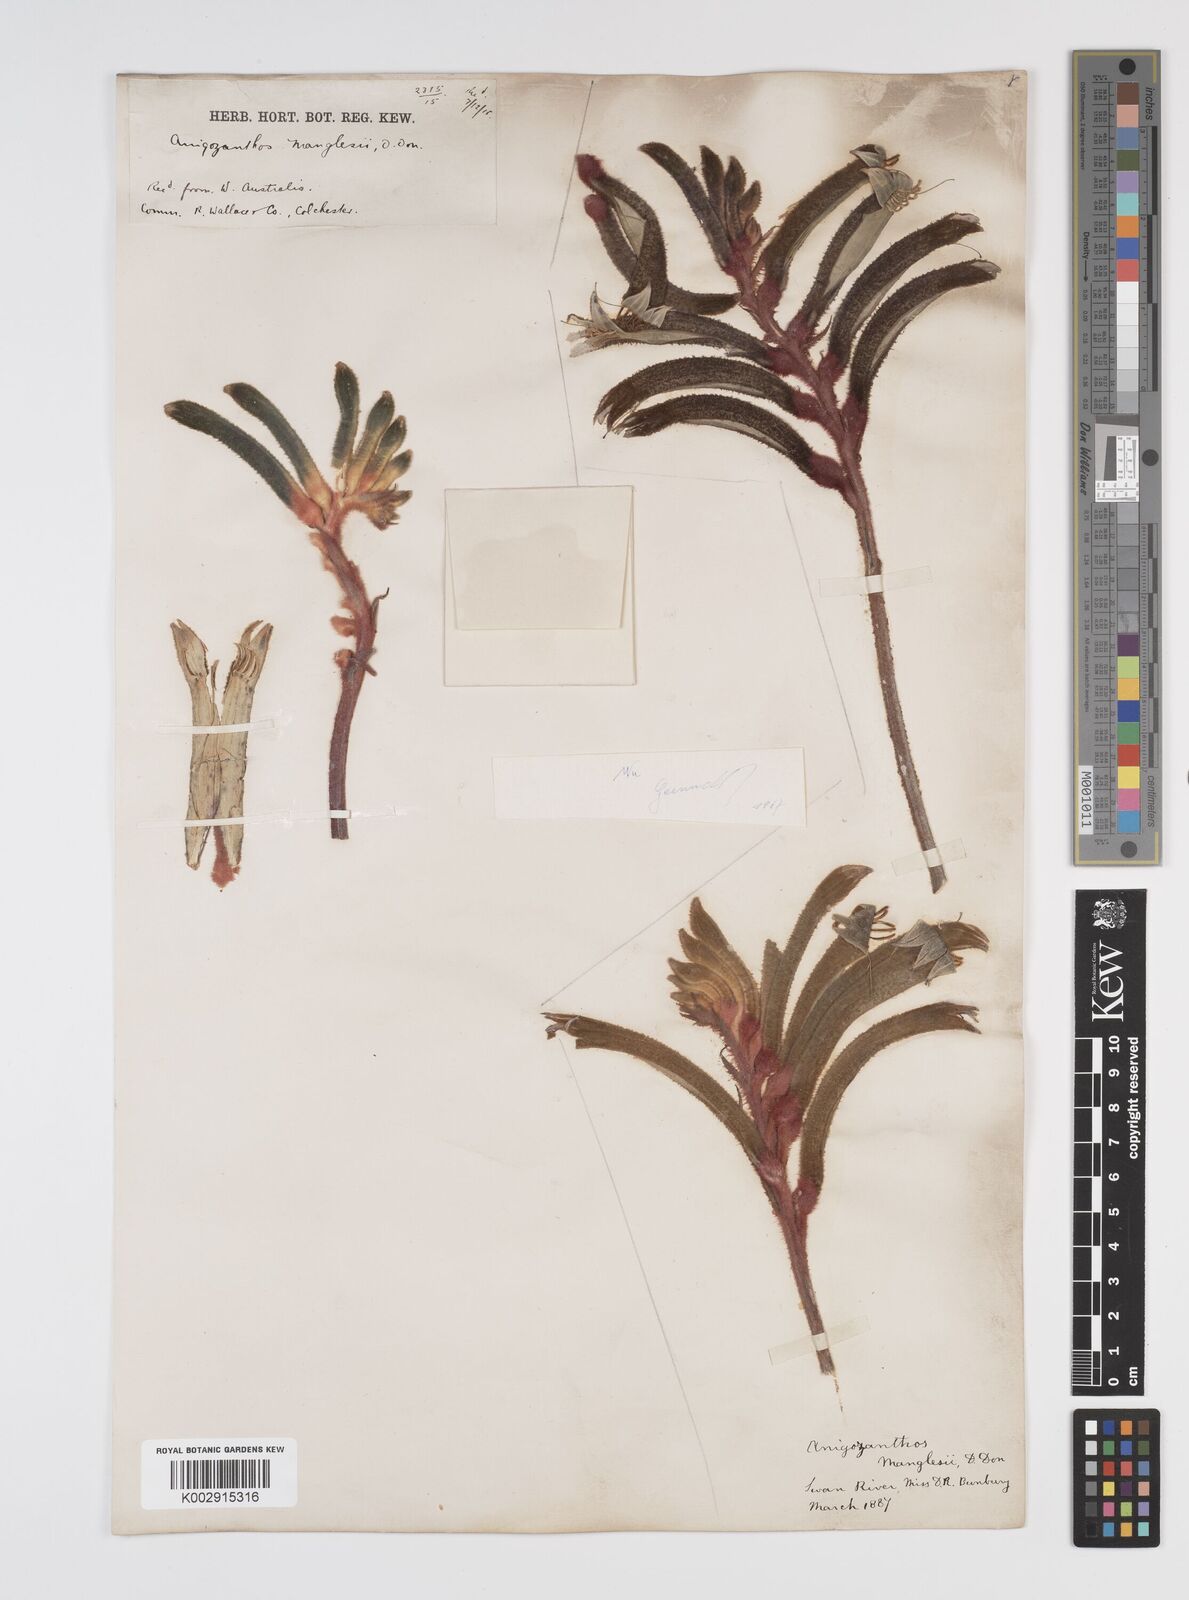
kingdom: Plantae
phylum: Tracheophyta
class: Liliopsida
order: Commelinales
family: Haemodoraceae
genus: Anigozanthos
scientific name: Anigozanthos manglesii
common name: Mangles's kangaroo-paw
